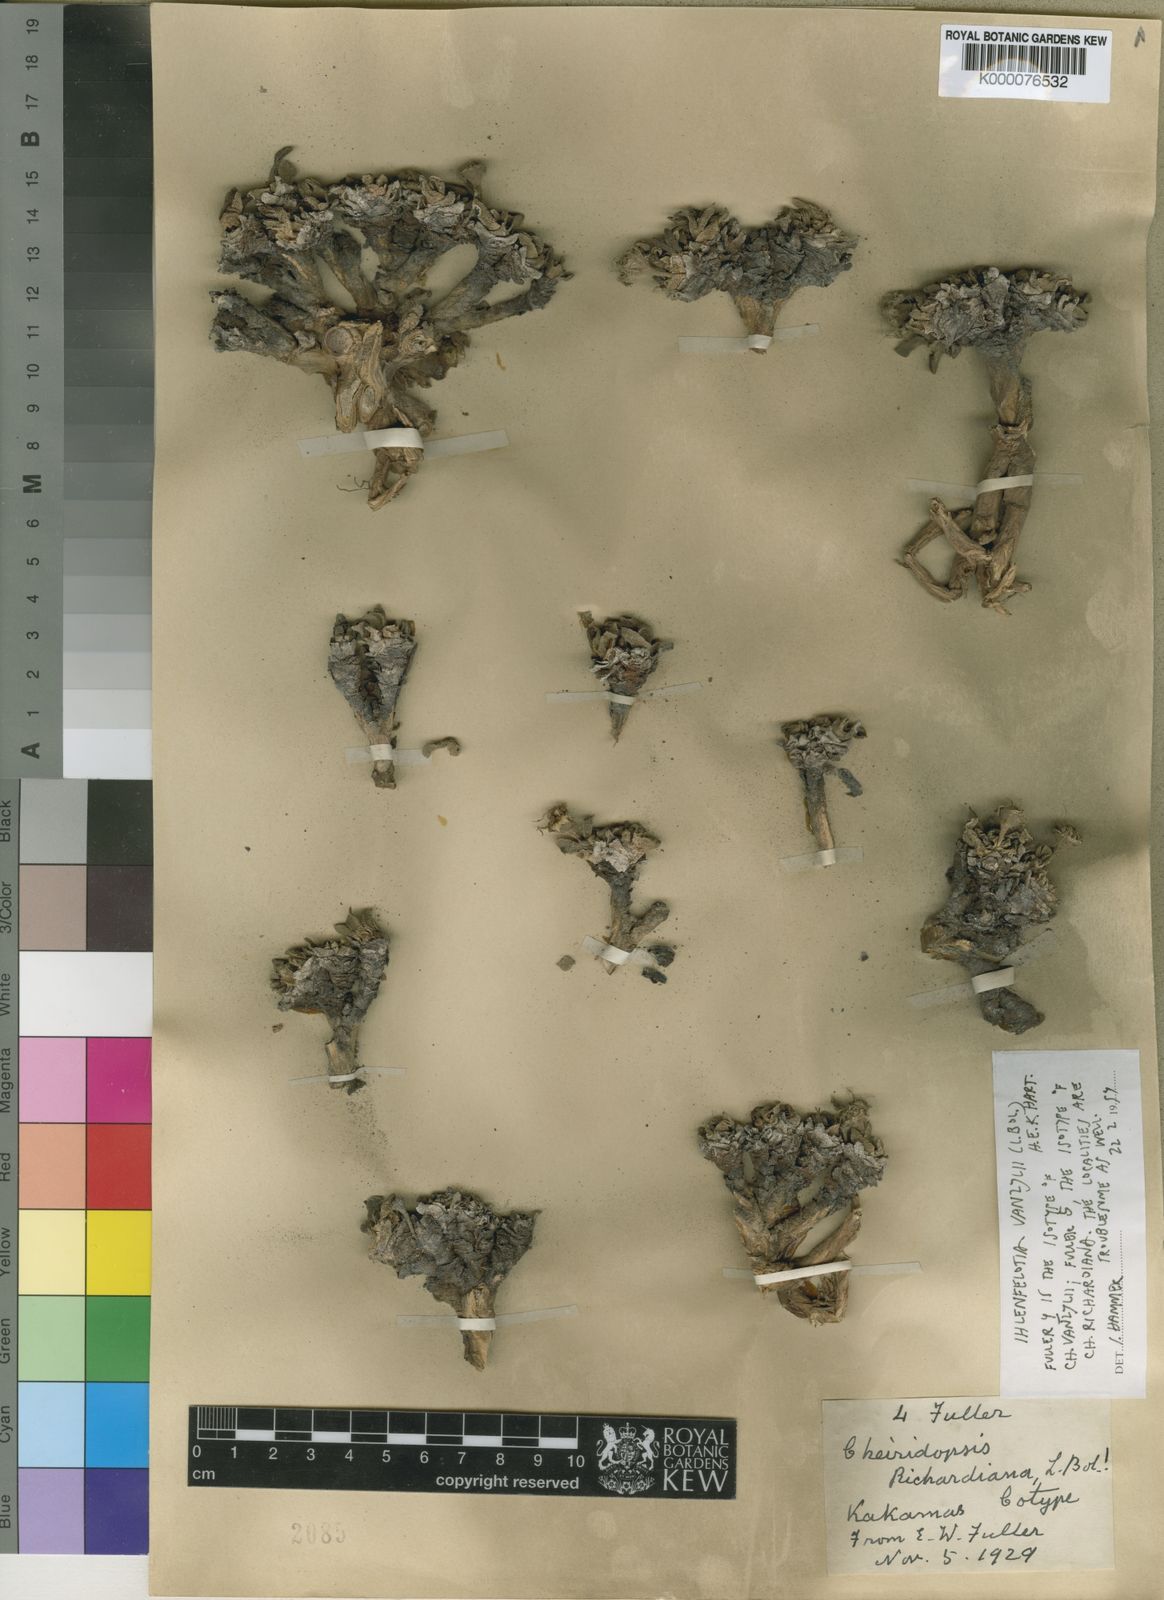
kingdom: Plantae
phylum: Tracheophyta
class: Magnoliopsida
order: Caryophyllales
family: Aizoaceae
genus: Cheiridopsis
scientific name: Cheiridopsis vanzylii
